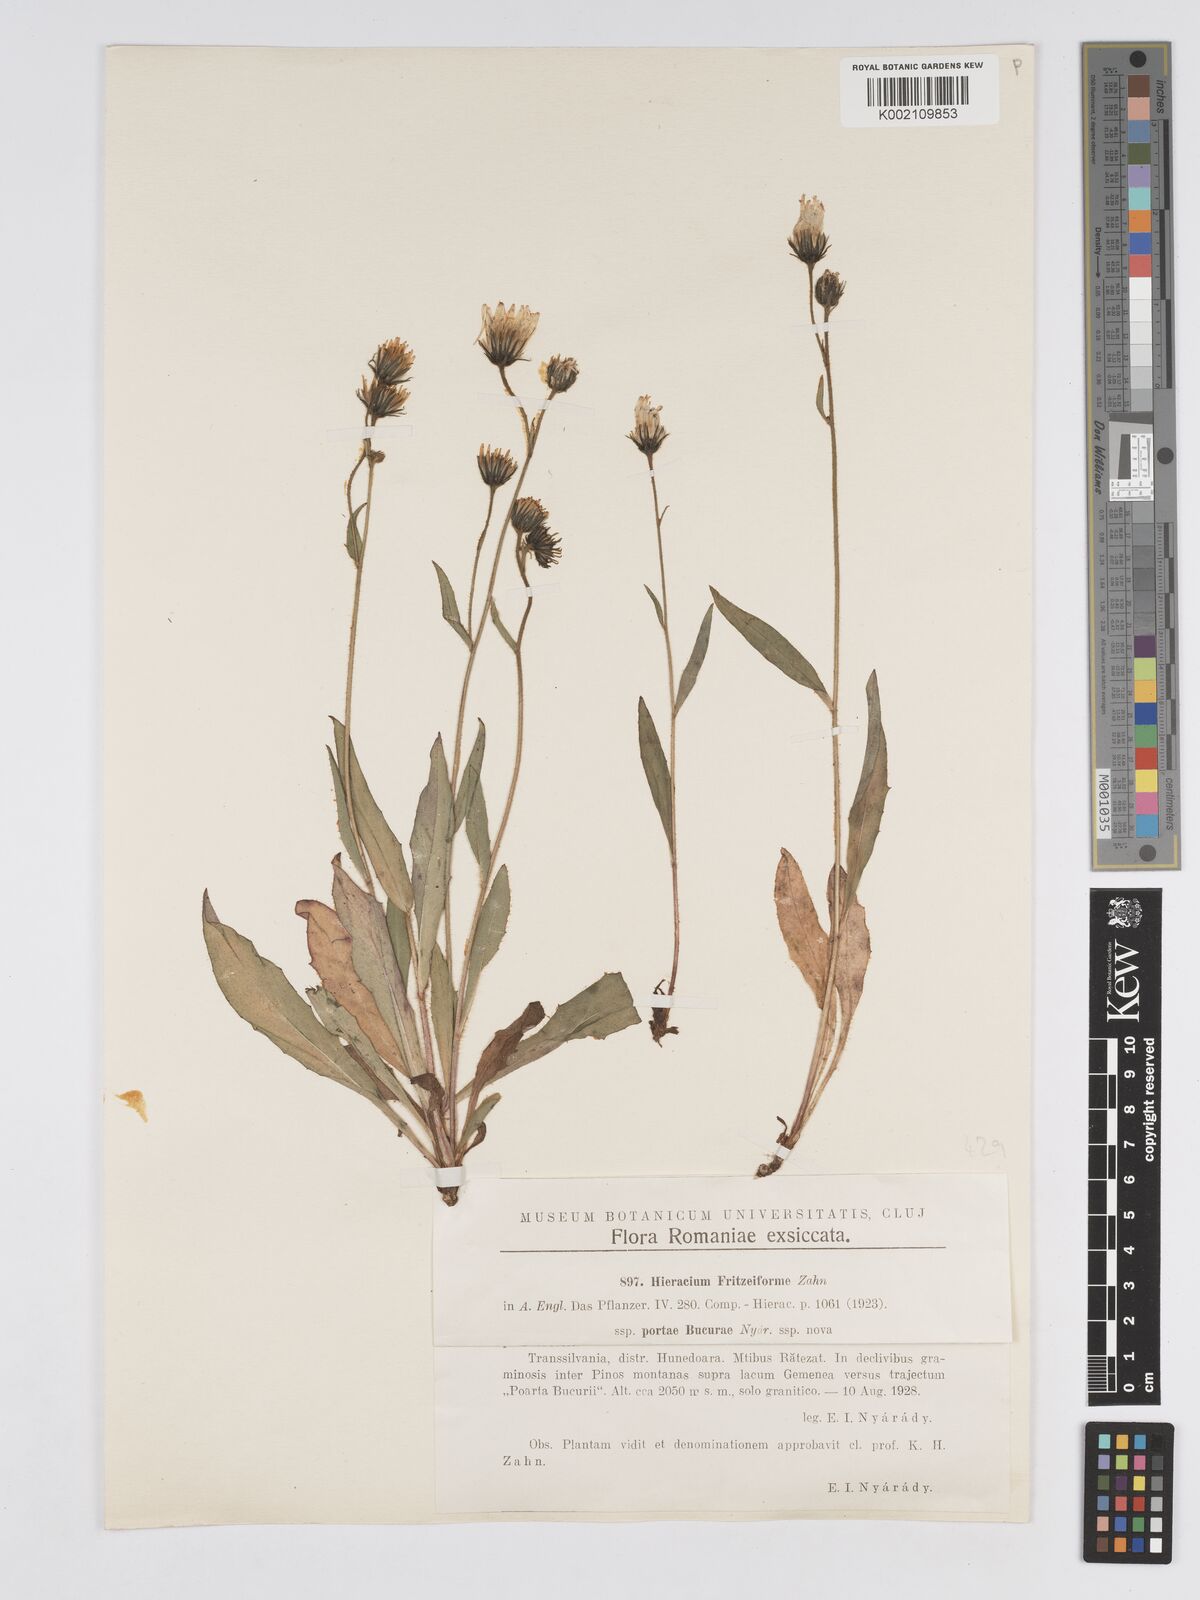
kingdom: Plantae
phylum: Tracheophyta
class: Magnoliopsida
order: Asterales
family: Asteraceae
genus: Hieracium
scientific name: Hieracium fritzeiforme
